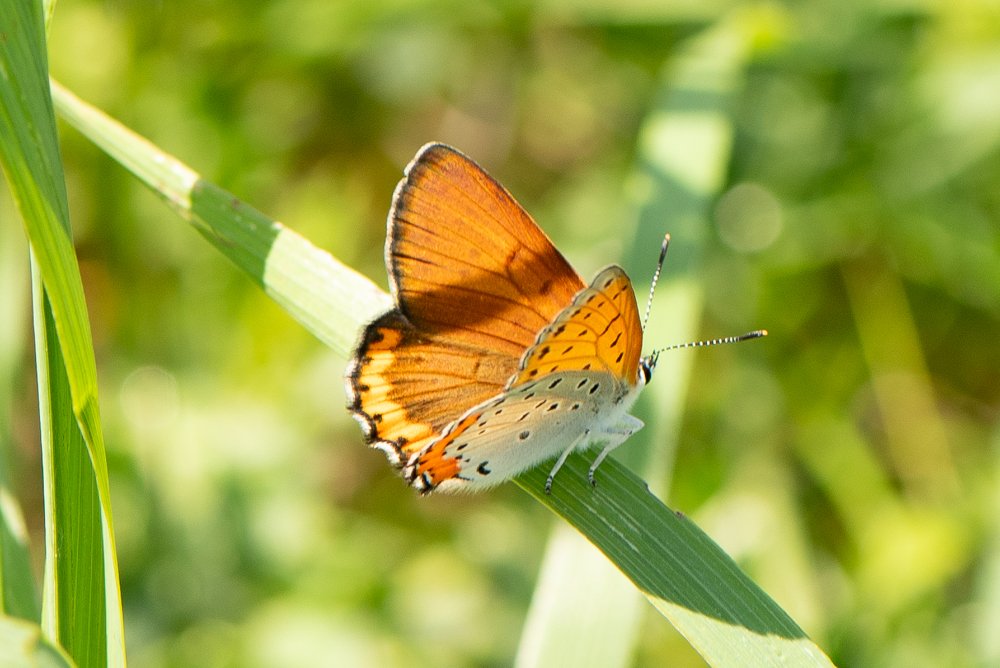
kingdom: Animalia
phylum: Arthropoda
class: Insecta
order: Lepidoptera
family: Sesiidae
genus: Sesia
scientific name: Sesia Lycaena hyllus
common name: Bronze Copper
